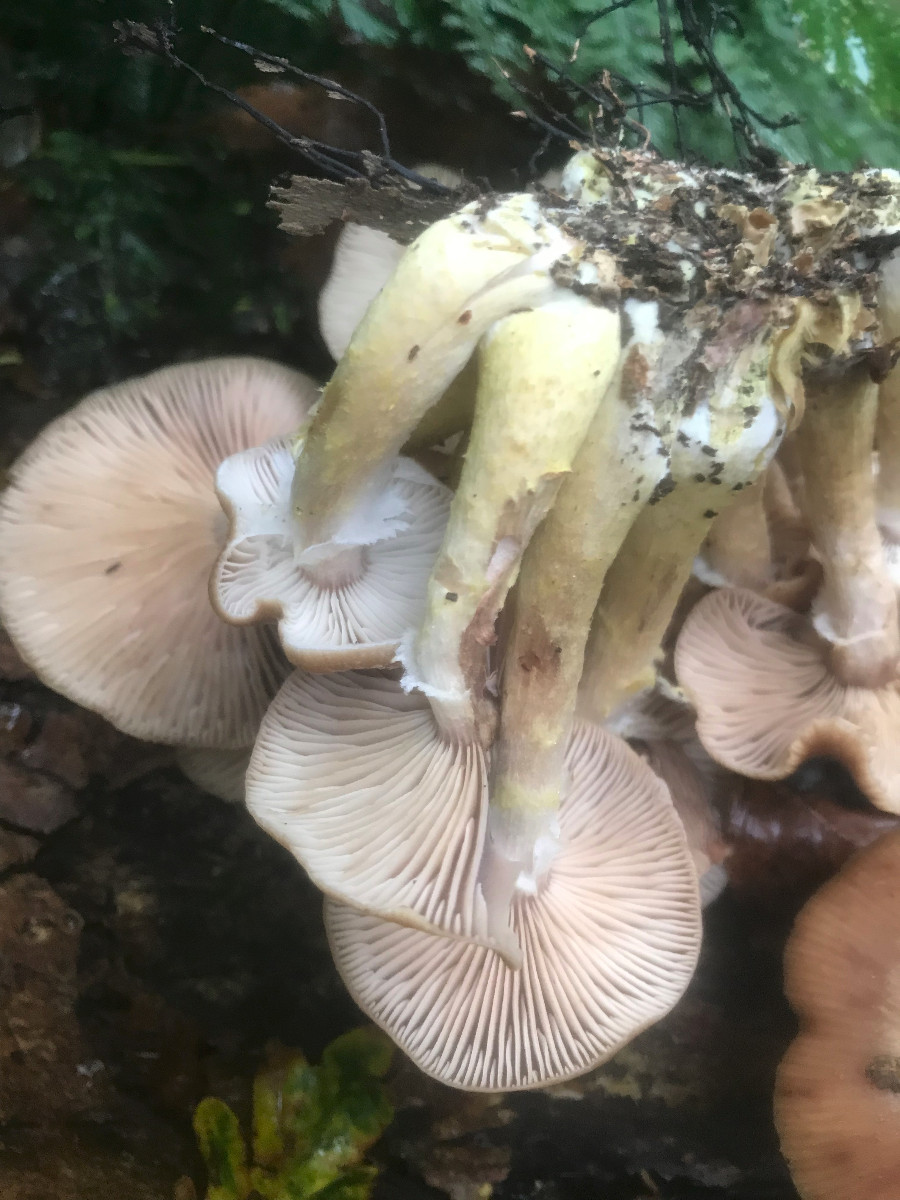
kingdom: Fungi
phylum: Basidiomycota
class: Agaricomycetes
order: Agaricales
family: Physalacriaceae
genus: Armillaria
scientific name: Armillaria lutea
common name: køllestokket honningsvamp
